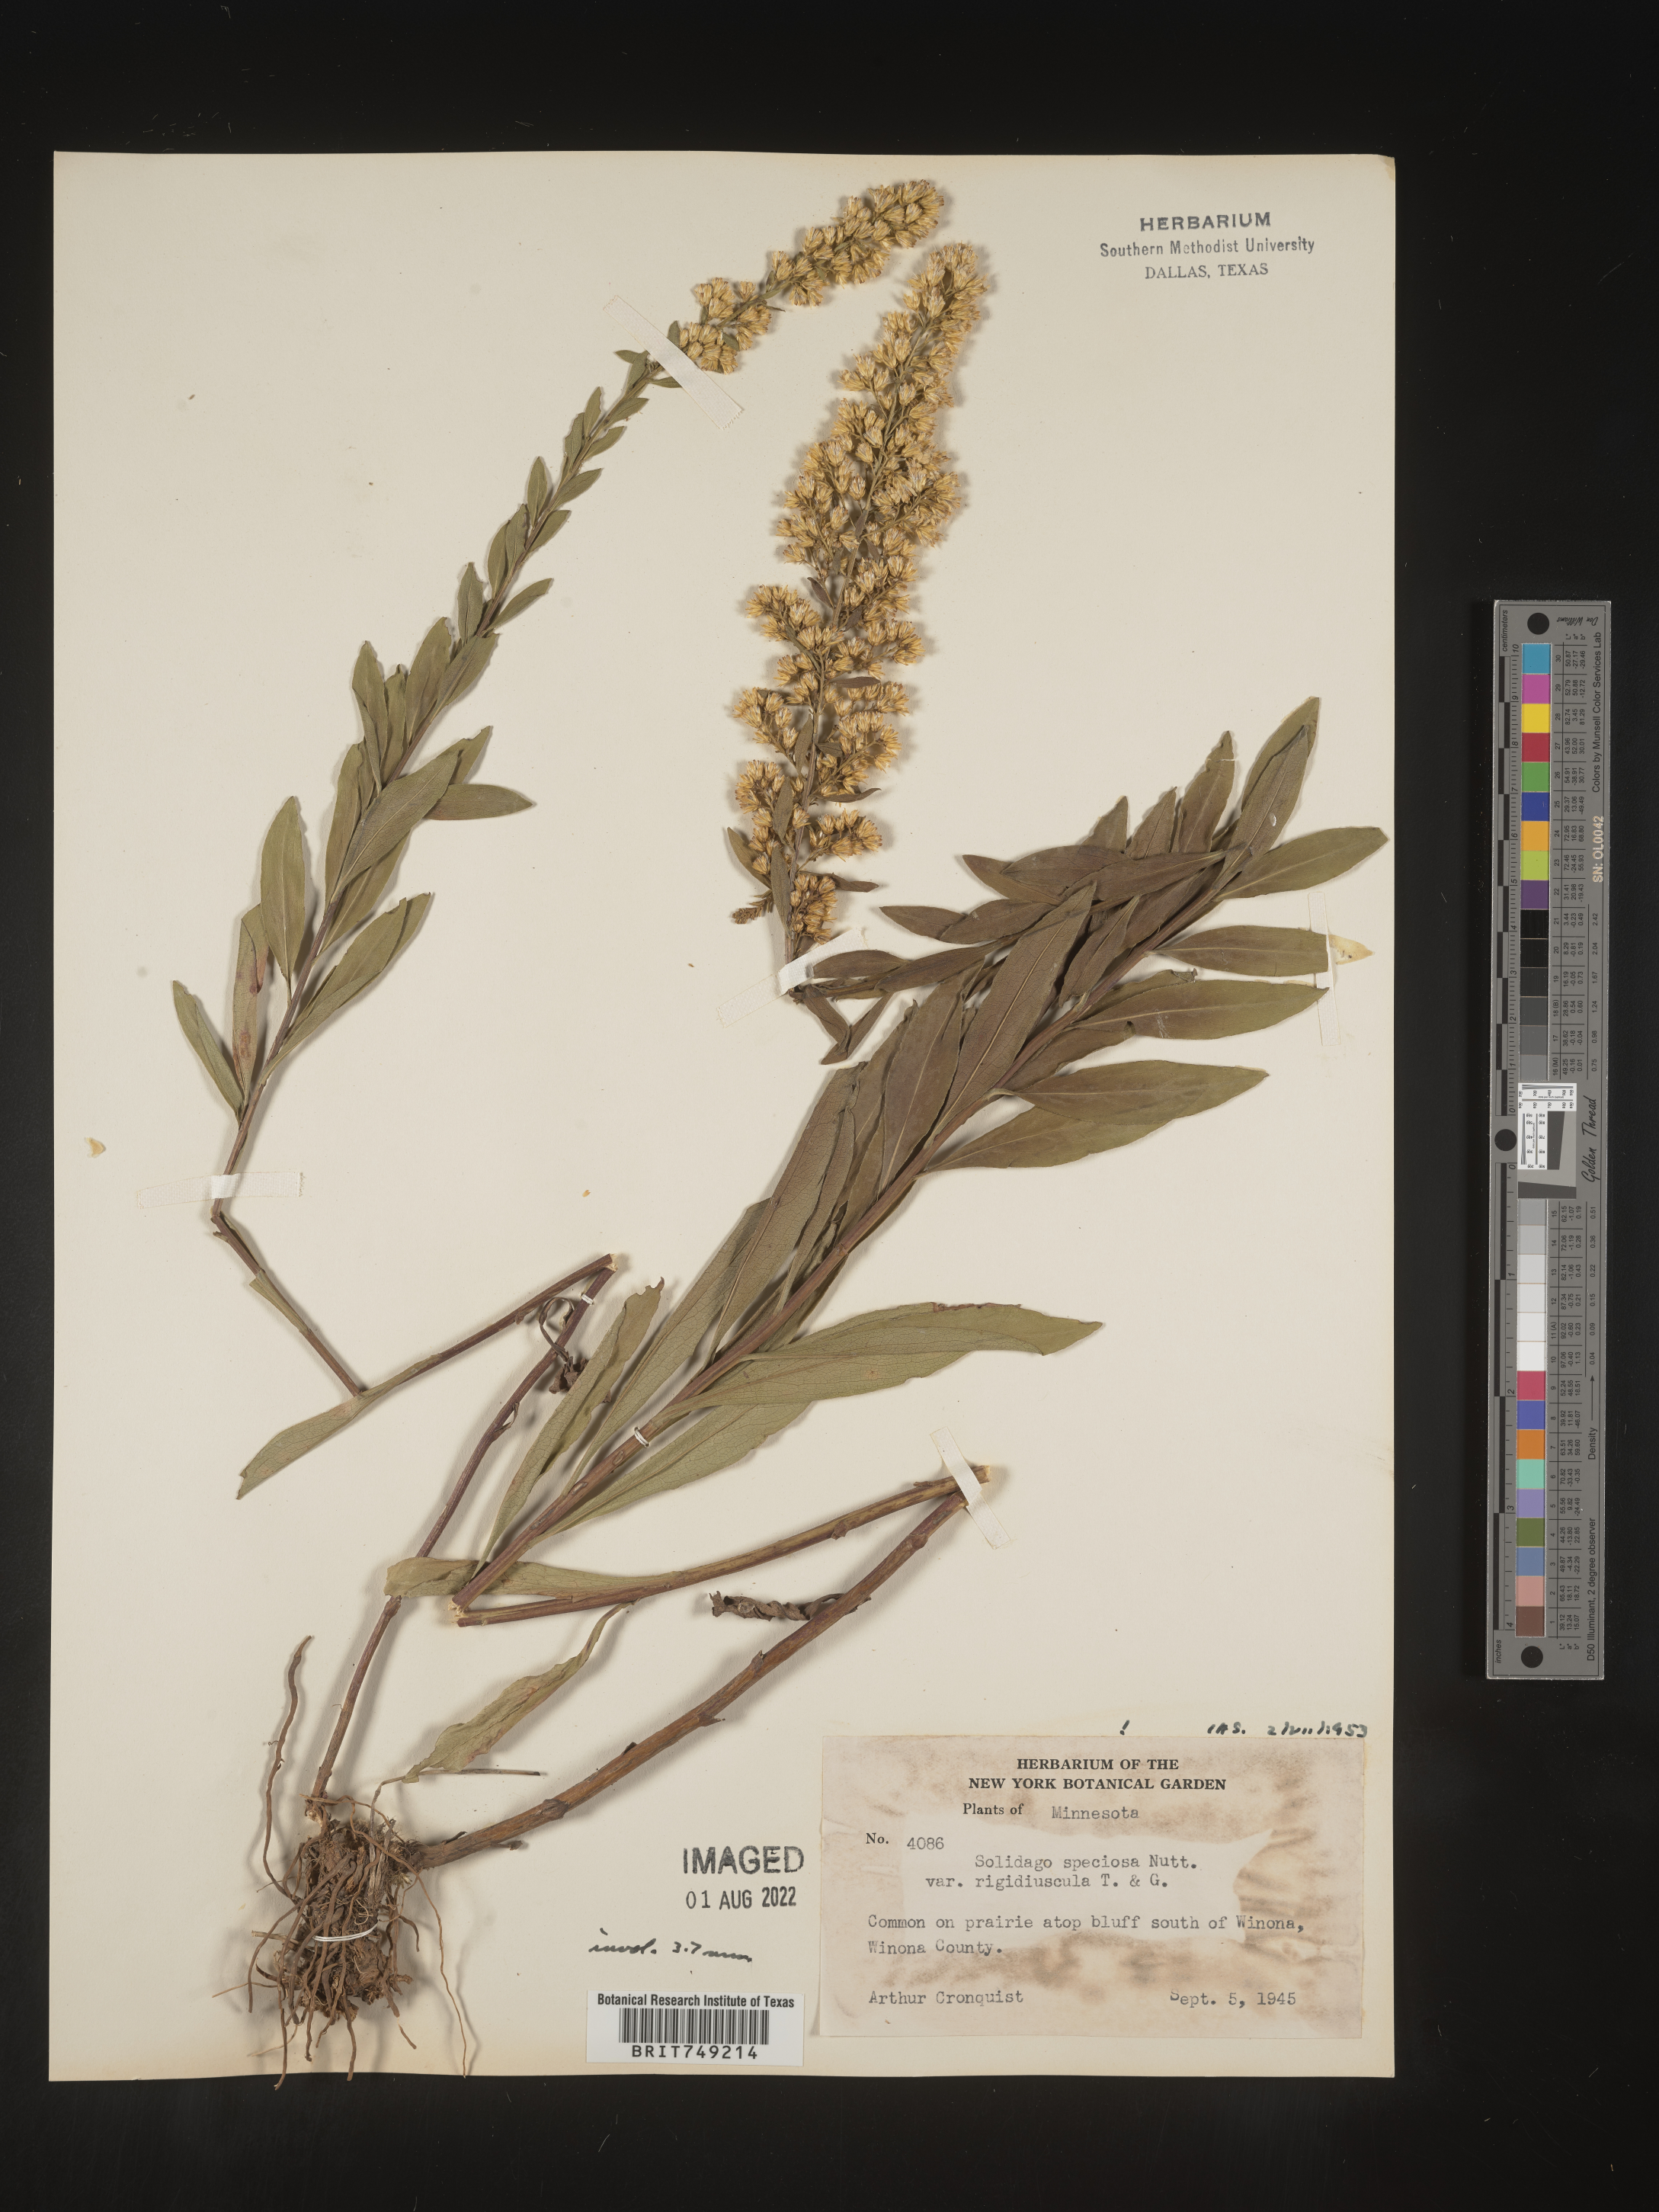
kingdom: Plantae
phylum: Tracheophyta
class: Magnoliopsida
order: Asterales
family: Asteraceae
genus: Solidago
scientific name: Solidago speciosa
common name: Showy goldenrod
